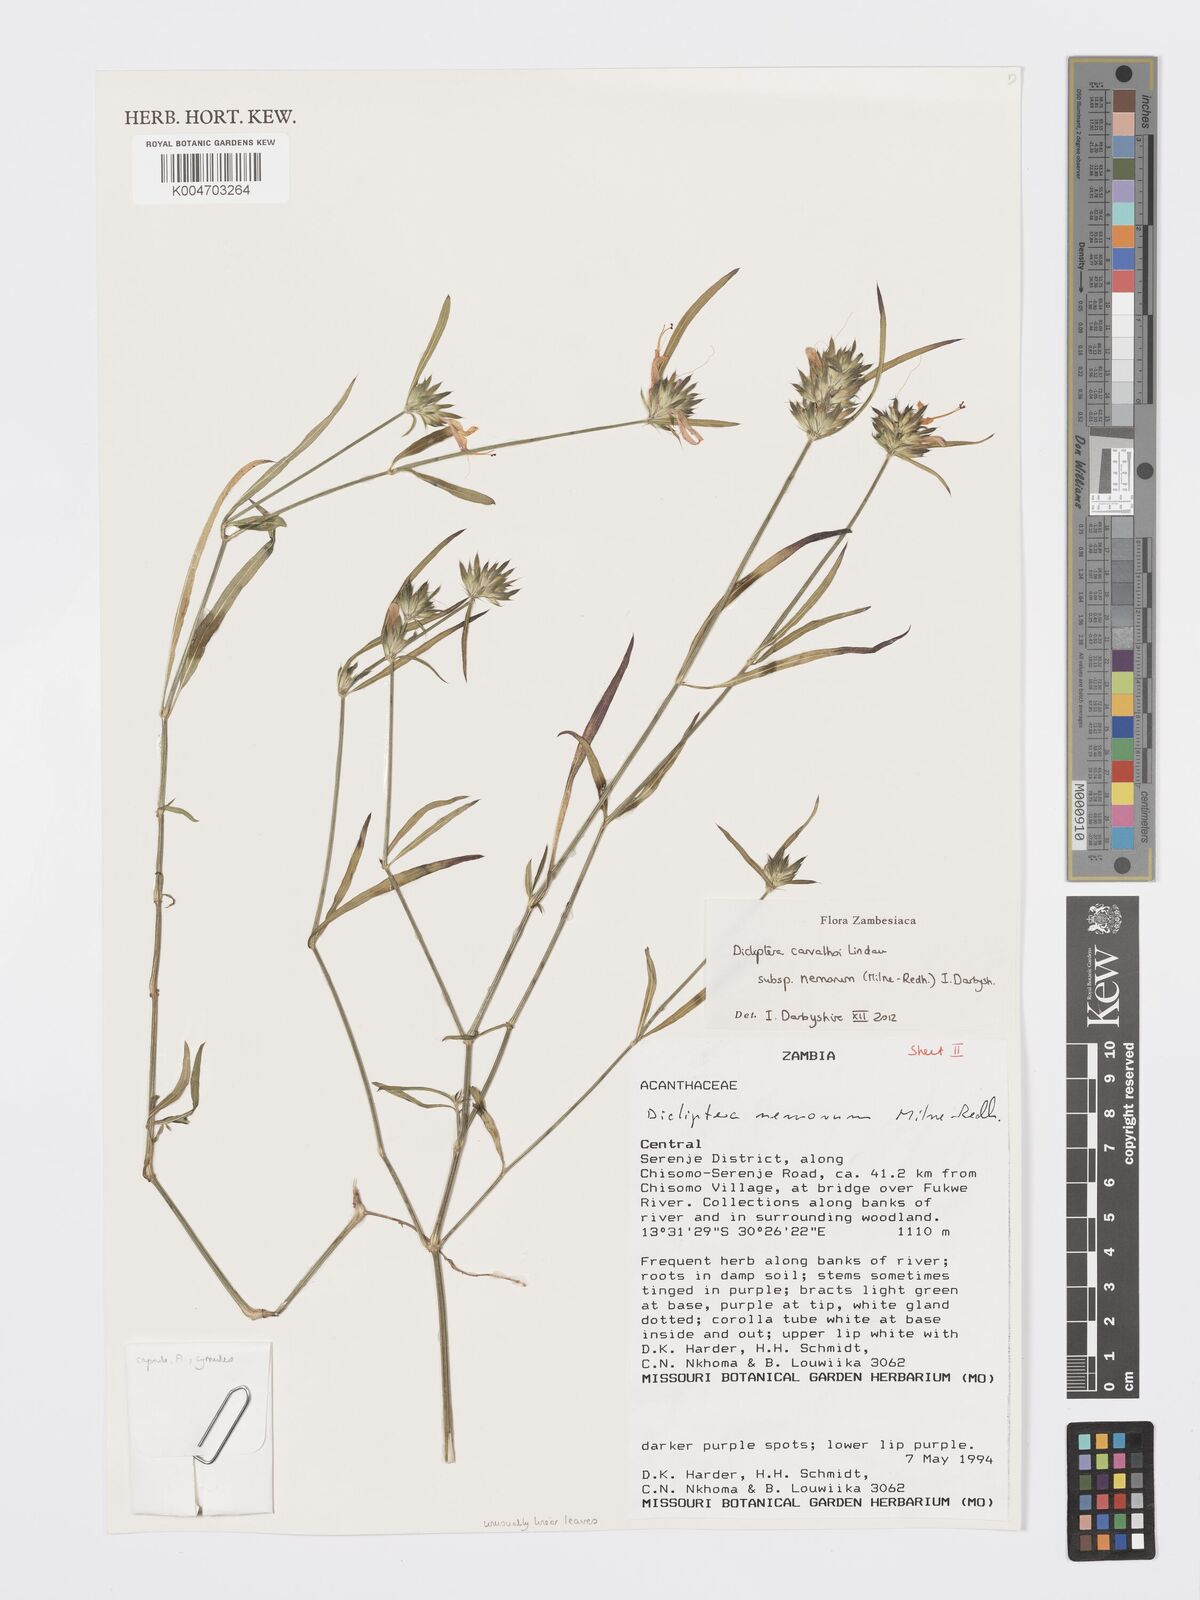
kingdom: Plantae
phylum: Tracheophyta
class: Magnoliopsida
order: Lamiales
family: Acanthaceae
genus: Dicliptera
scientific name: Dicliptera carvalhoi
